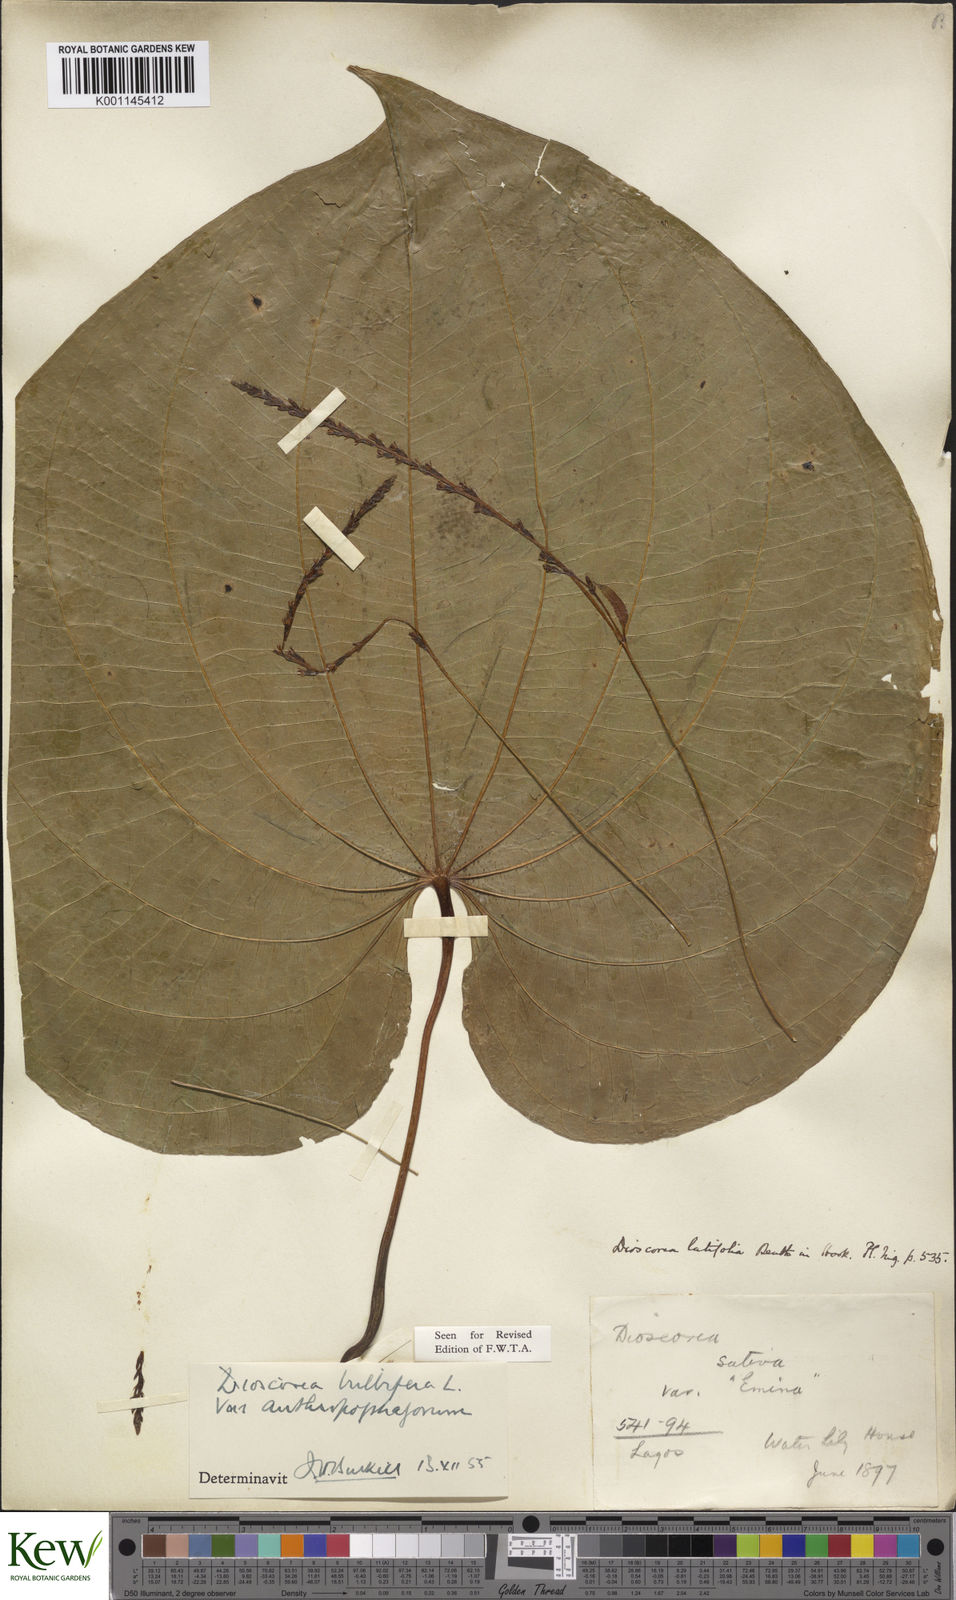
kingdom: Plantae
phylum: Tracheophyta
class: Liliopsida
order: Dioscoreales
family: Dioscoreaceae
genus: Dioscorea
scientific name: Dioscorea bulbifera
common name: Air yam
